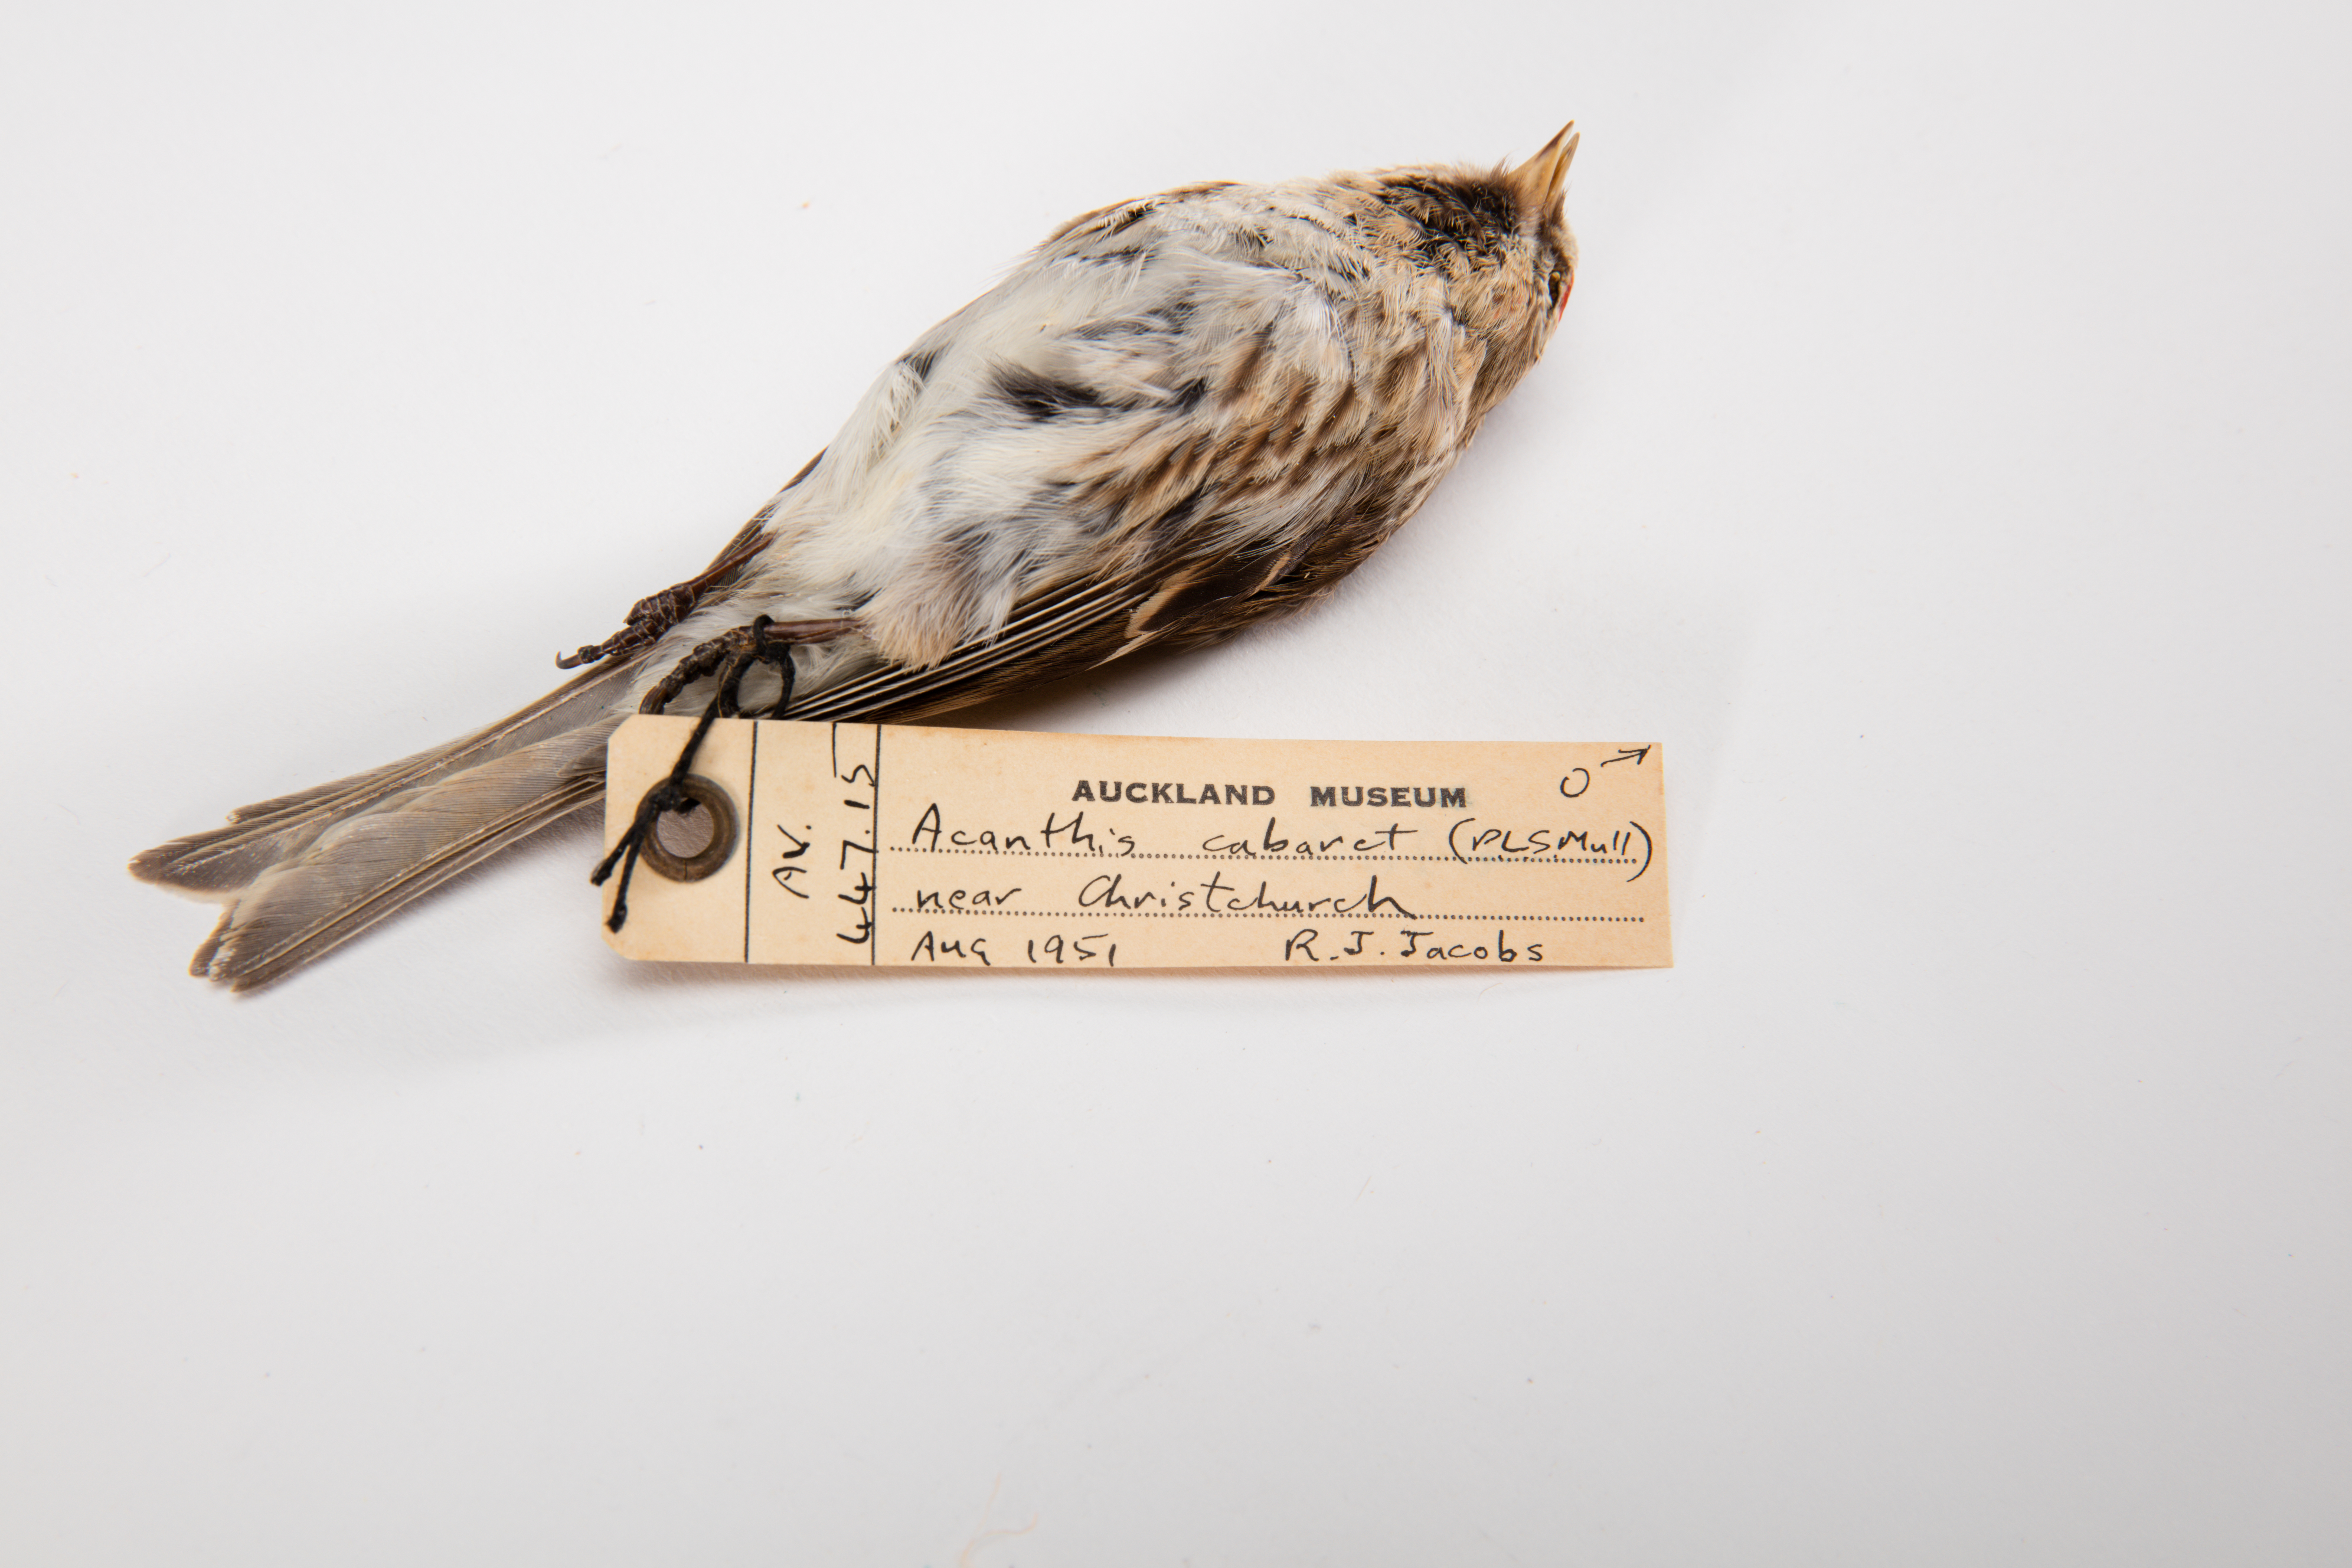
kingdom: Animalia
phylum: Chordata
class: Aves
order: Passeriformes
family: Fringillidae
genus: Acanthis
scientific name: Acanthis flammea
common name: Common redpoll
